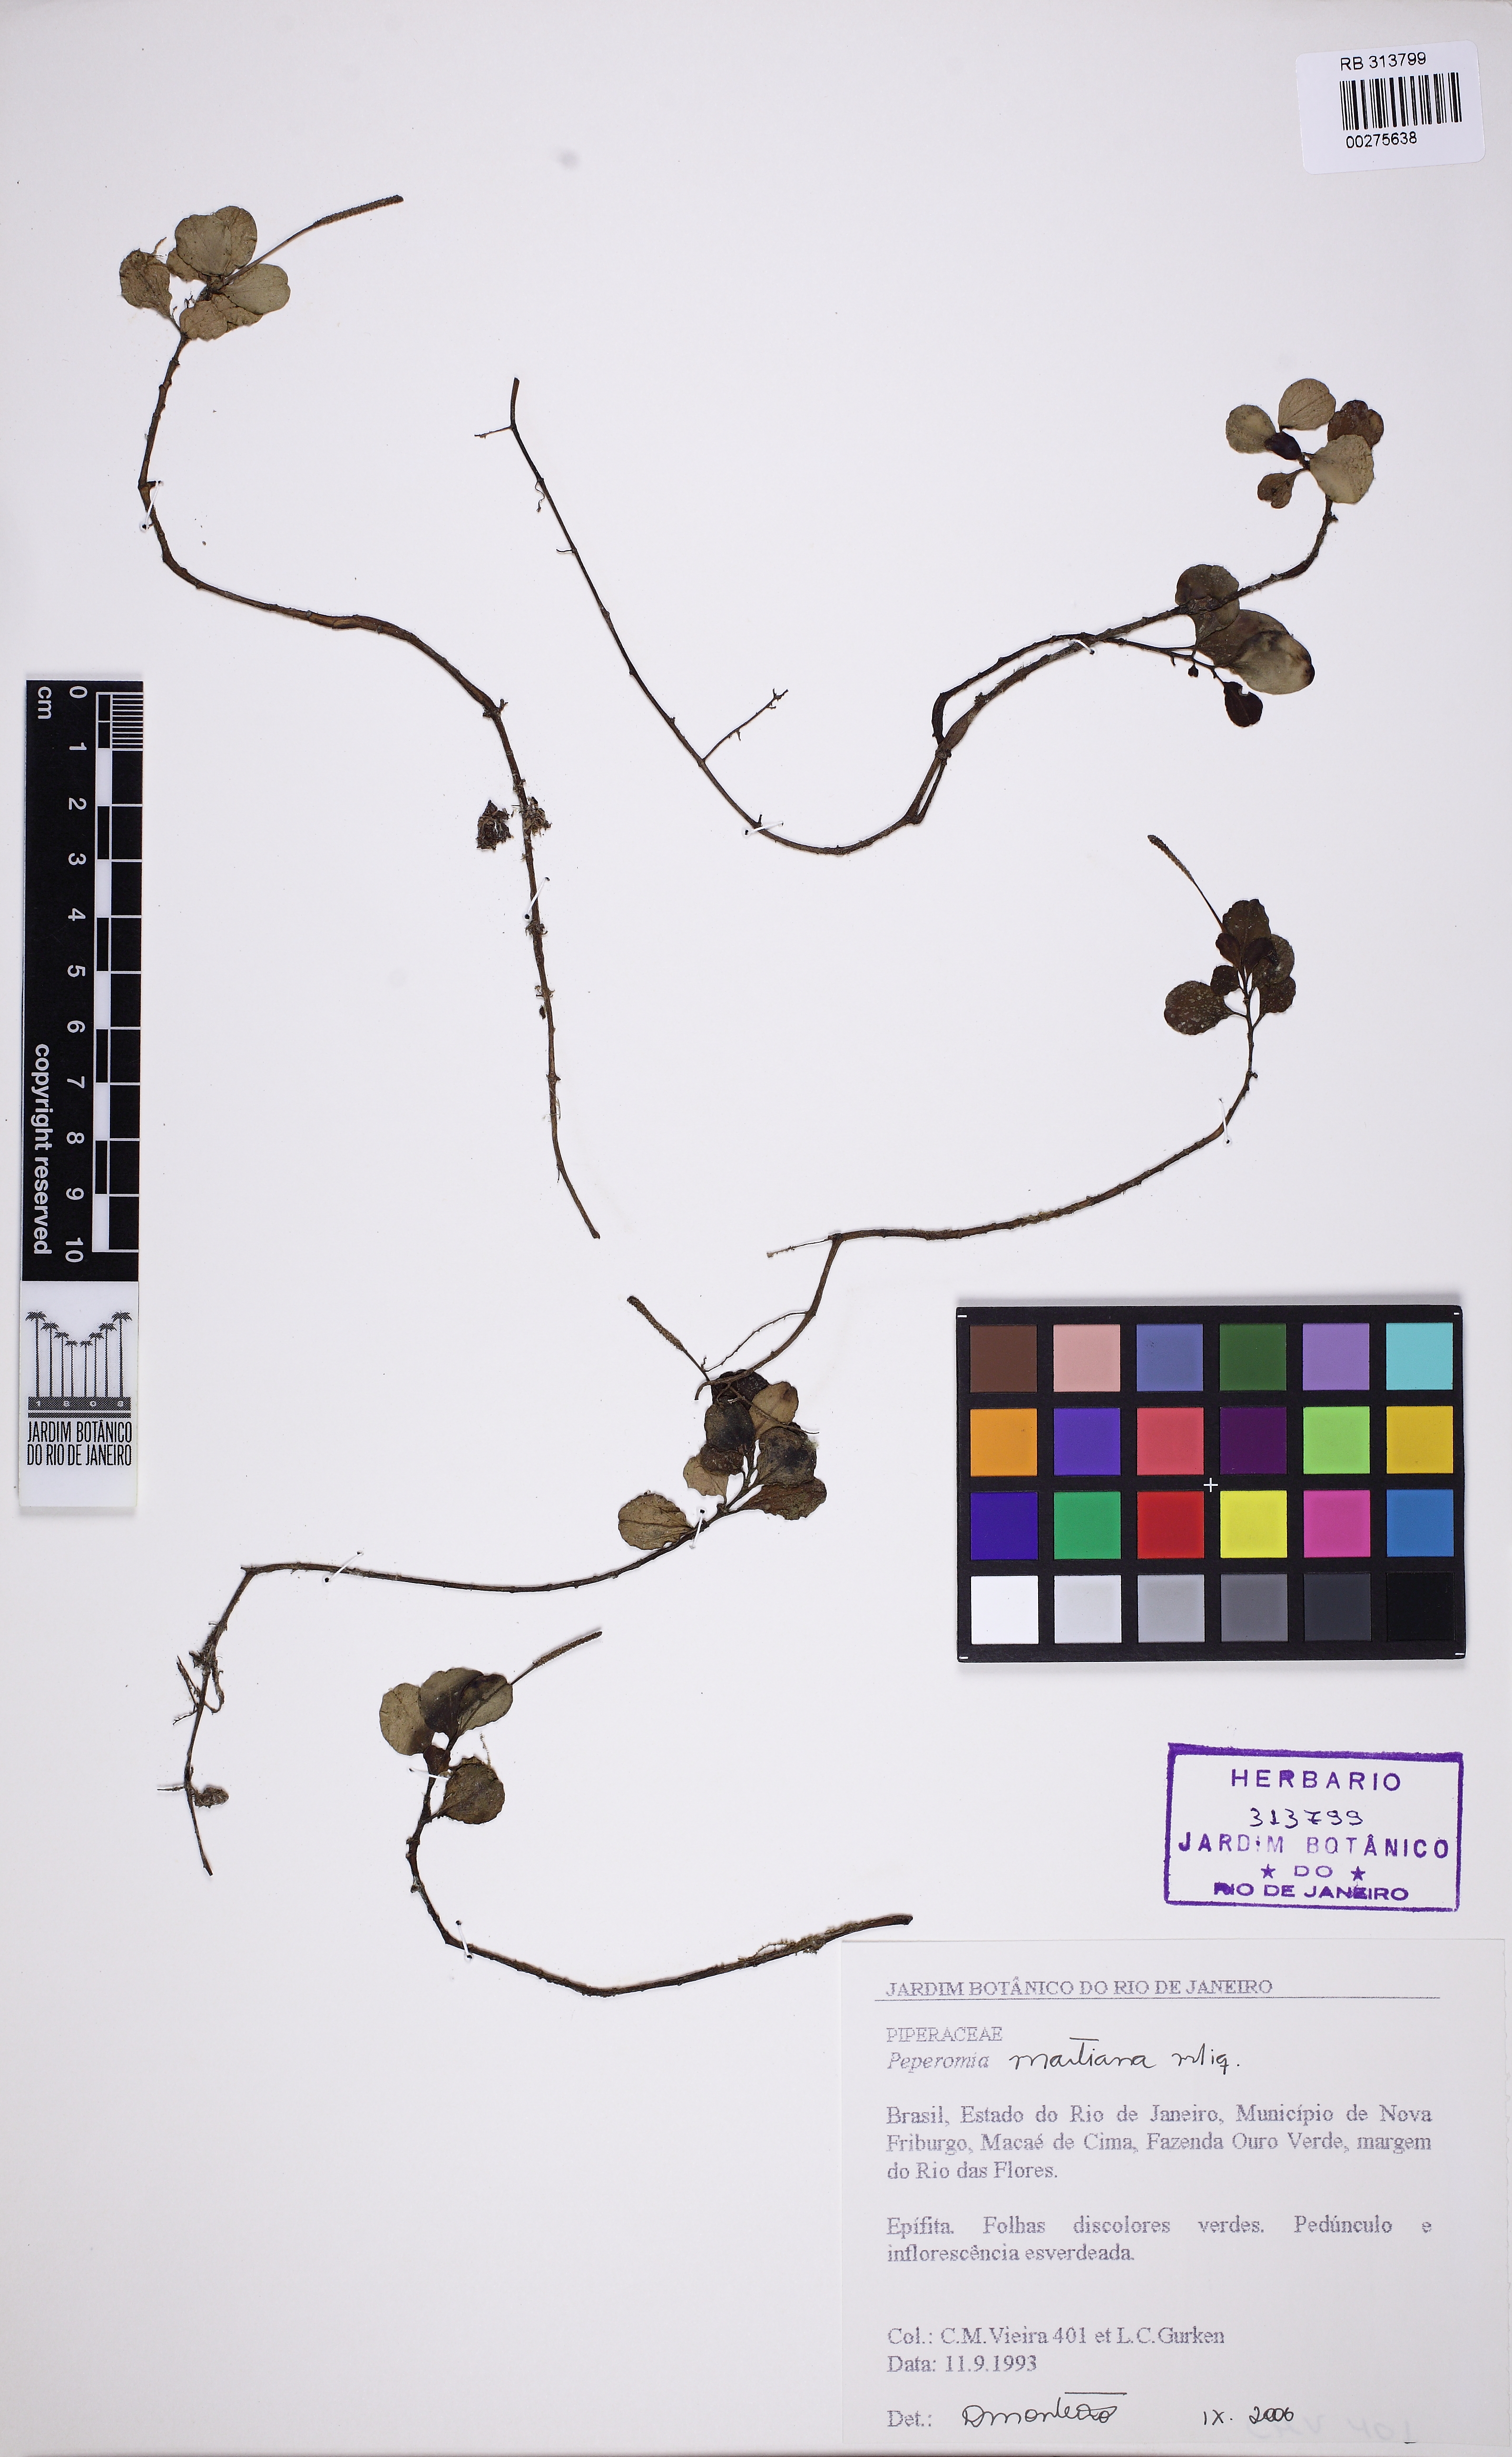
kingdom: Plantae
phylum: Tracheophyta
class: Magnoliopsida
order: Piperales
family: Piperaceae
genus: Peperomia
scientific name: Peperomia martiana
